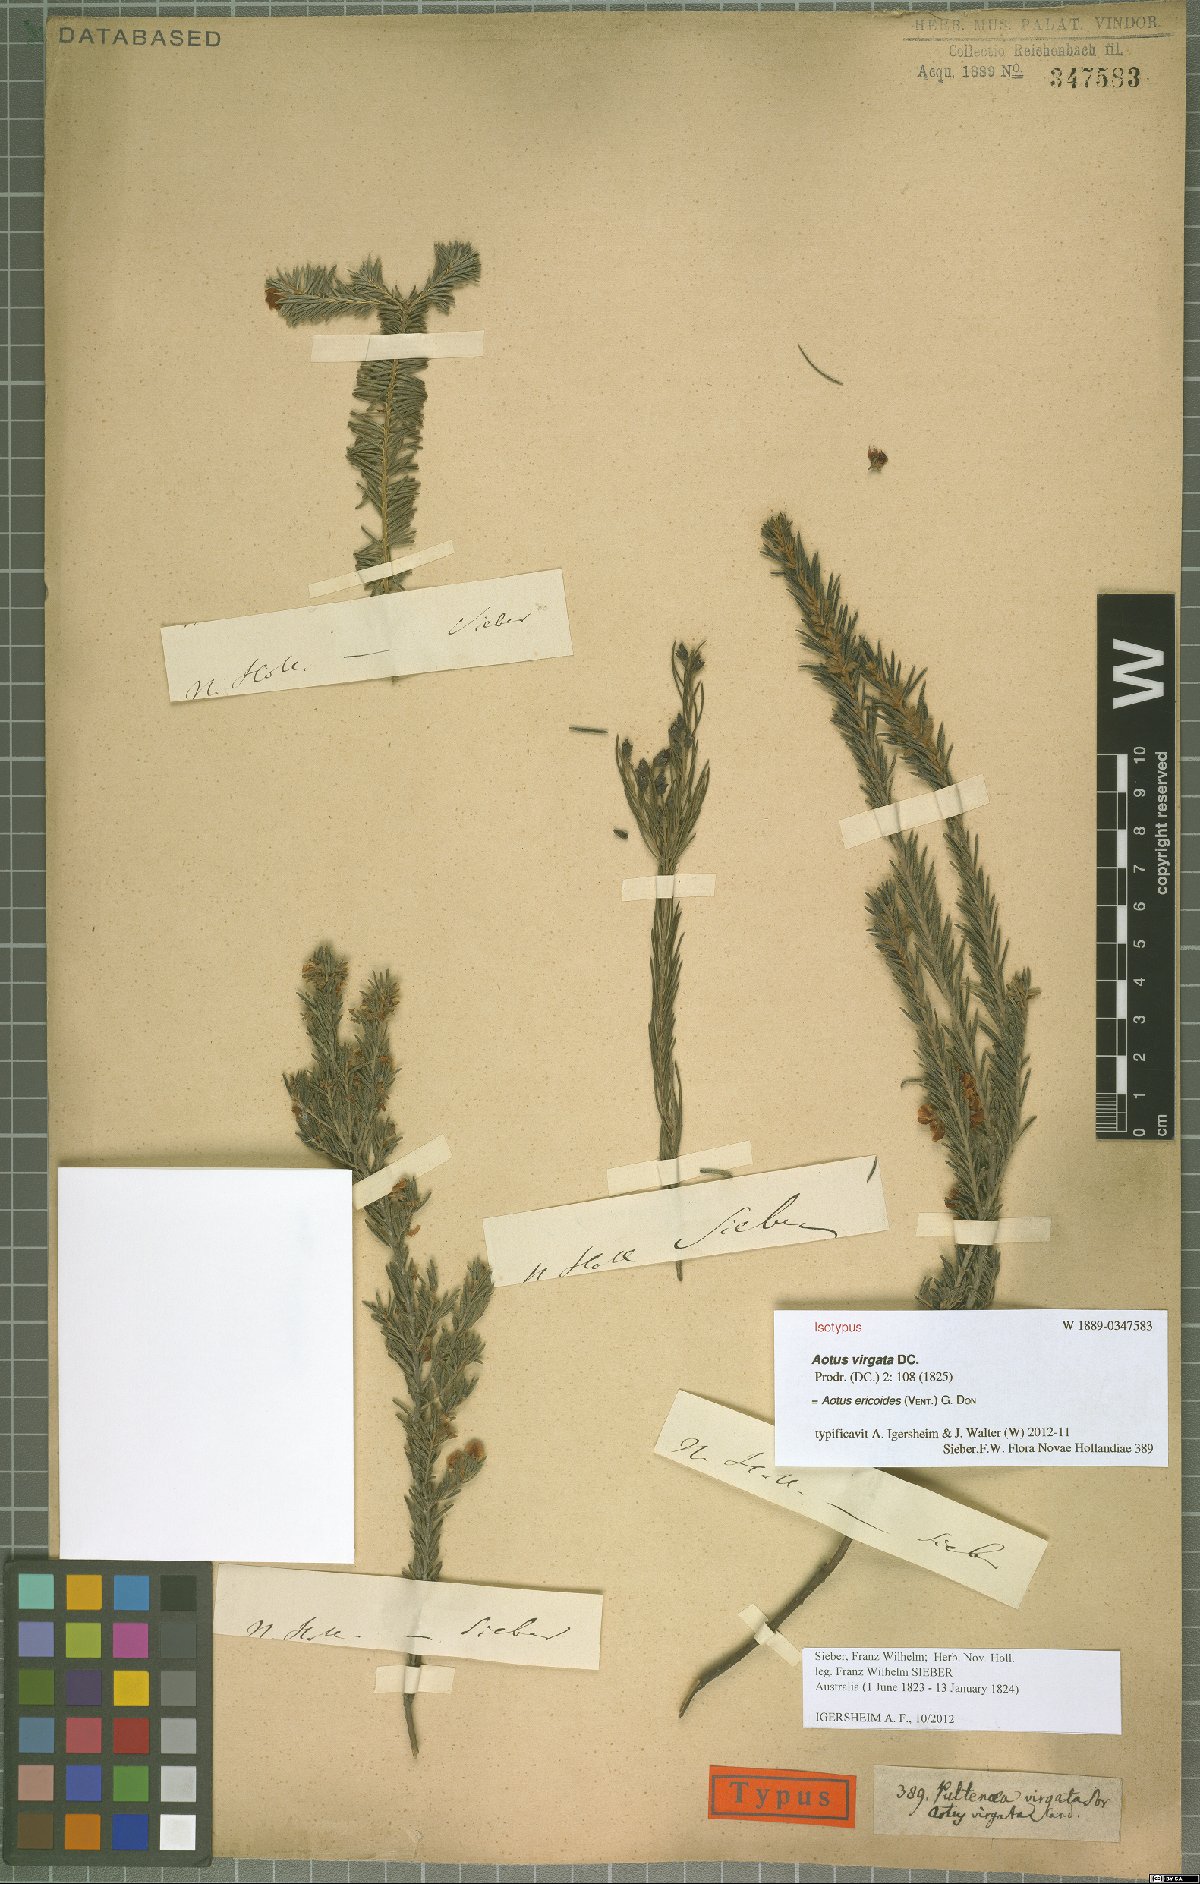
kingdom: Plantae
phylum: Tracheophyta
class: Magnoliopsida
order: Fabales
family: Fabaceae
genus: Aotus
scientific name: Aotus ericoides
